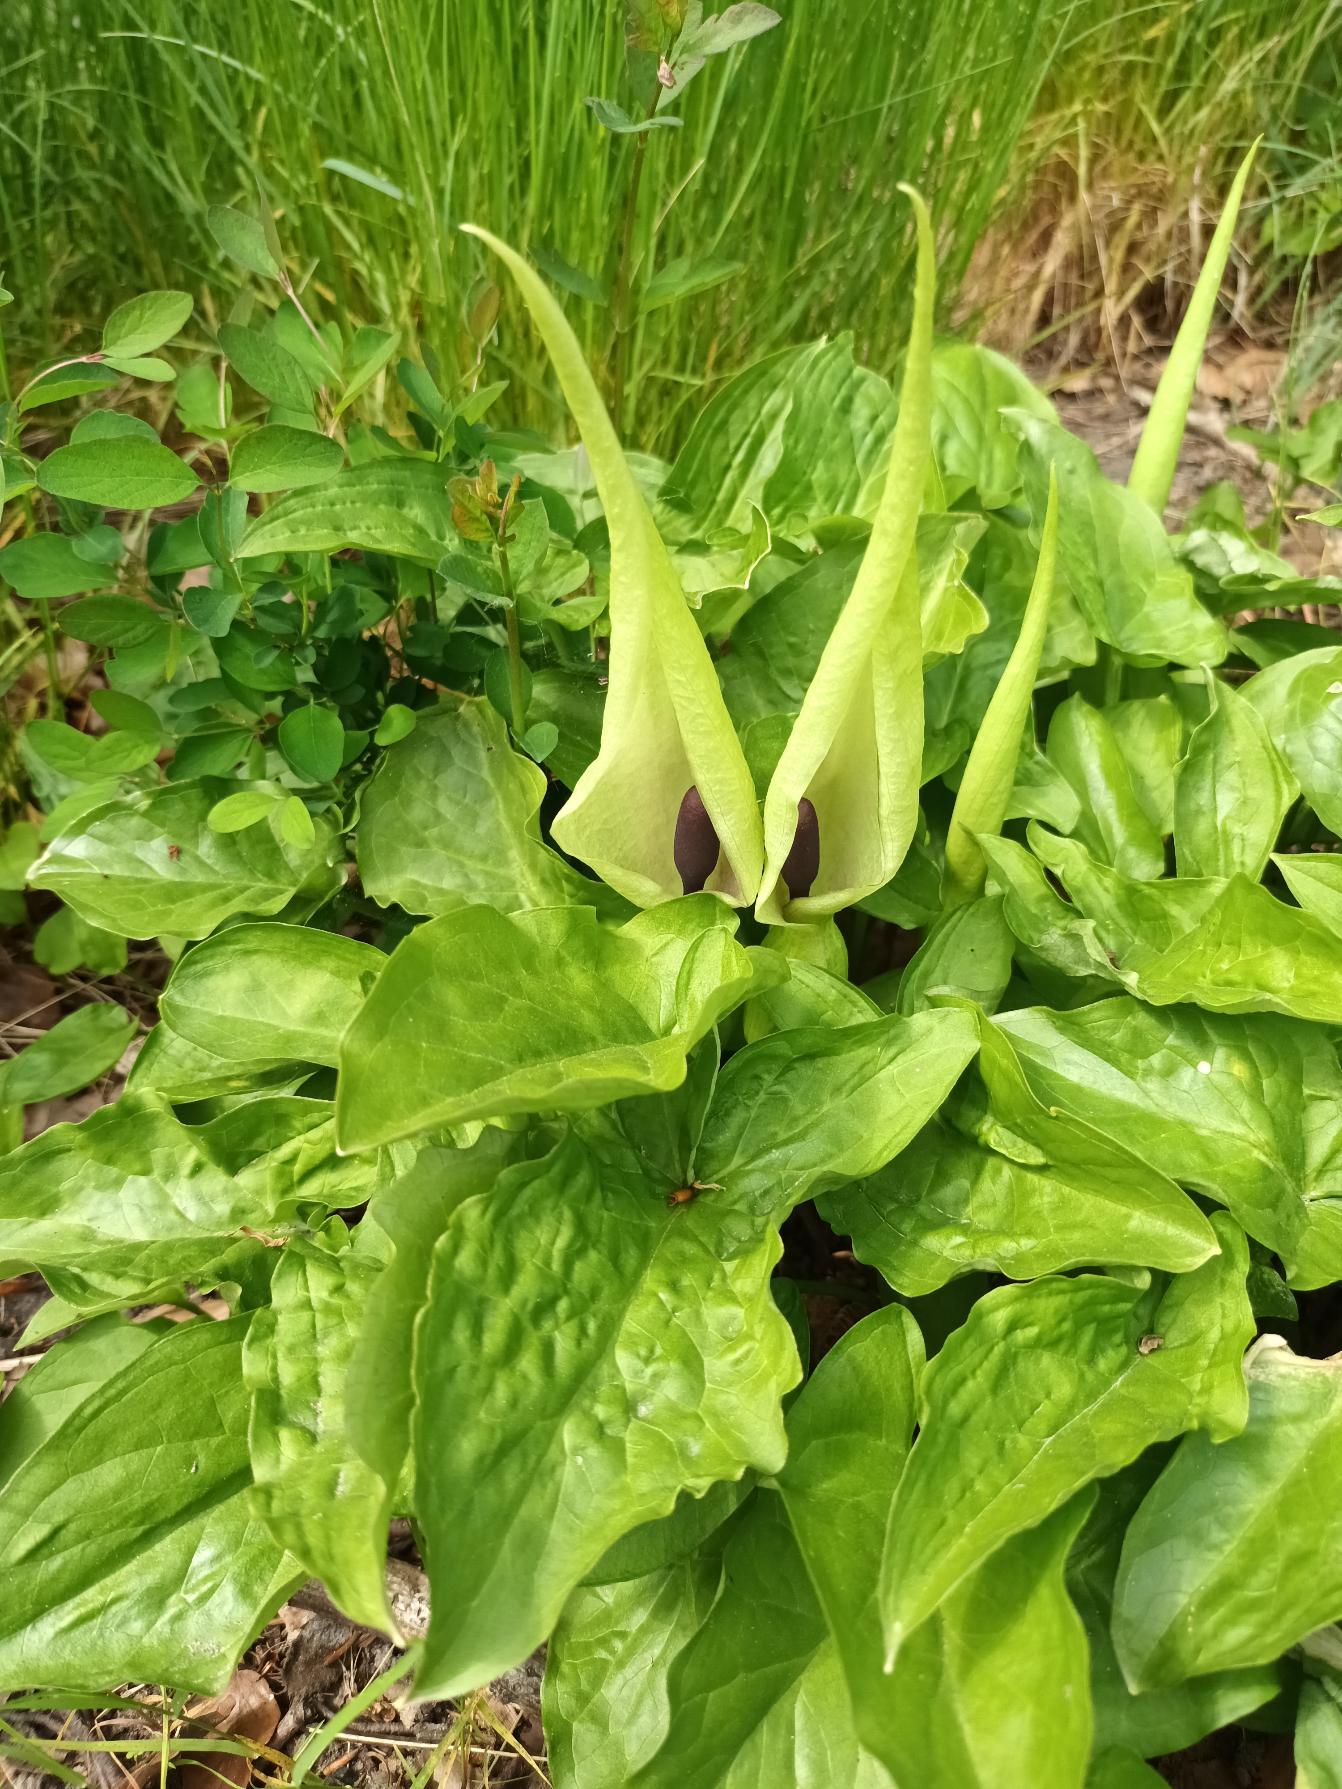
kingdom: Plantae
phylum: Tracheophyta
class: Liliopsida
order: Alismatales
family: Araceae
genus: Arum
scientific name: Arum maculatum
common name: Plettet arum
